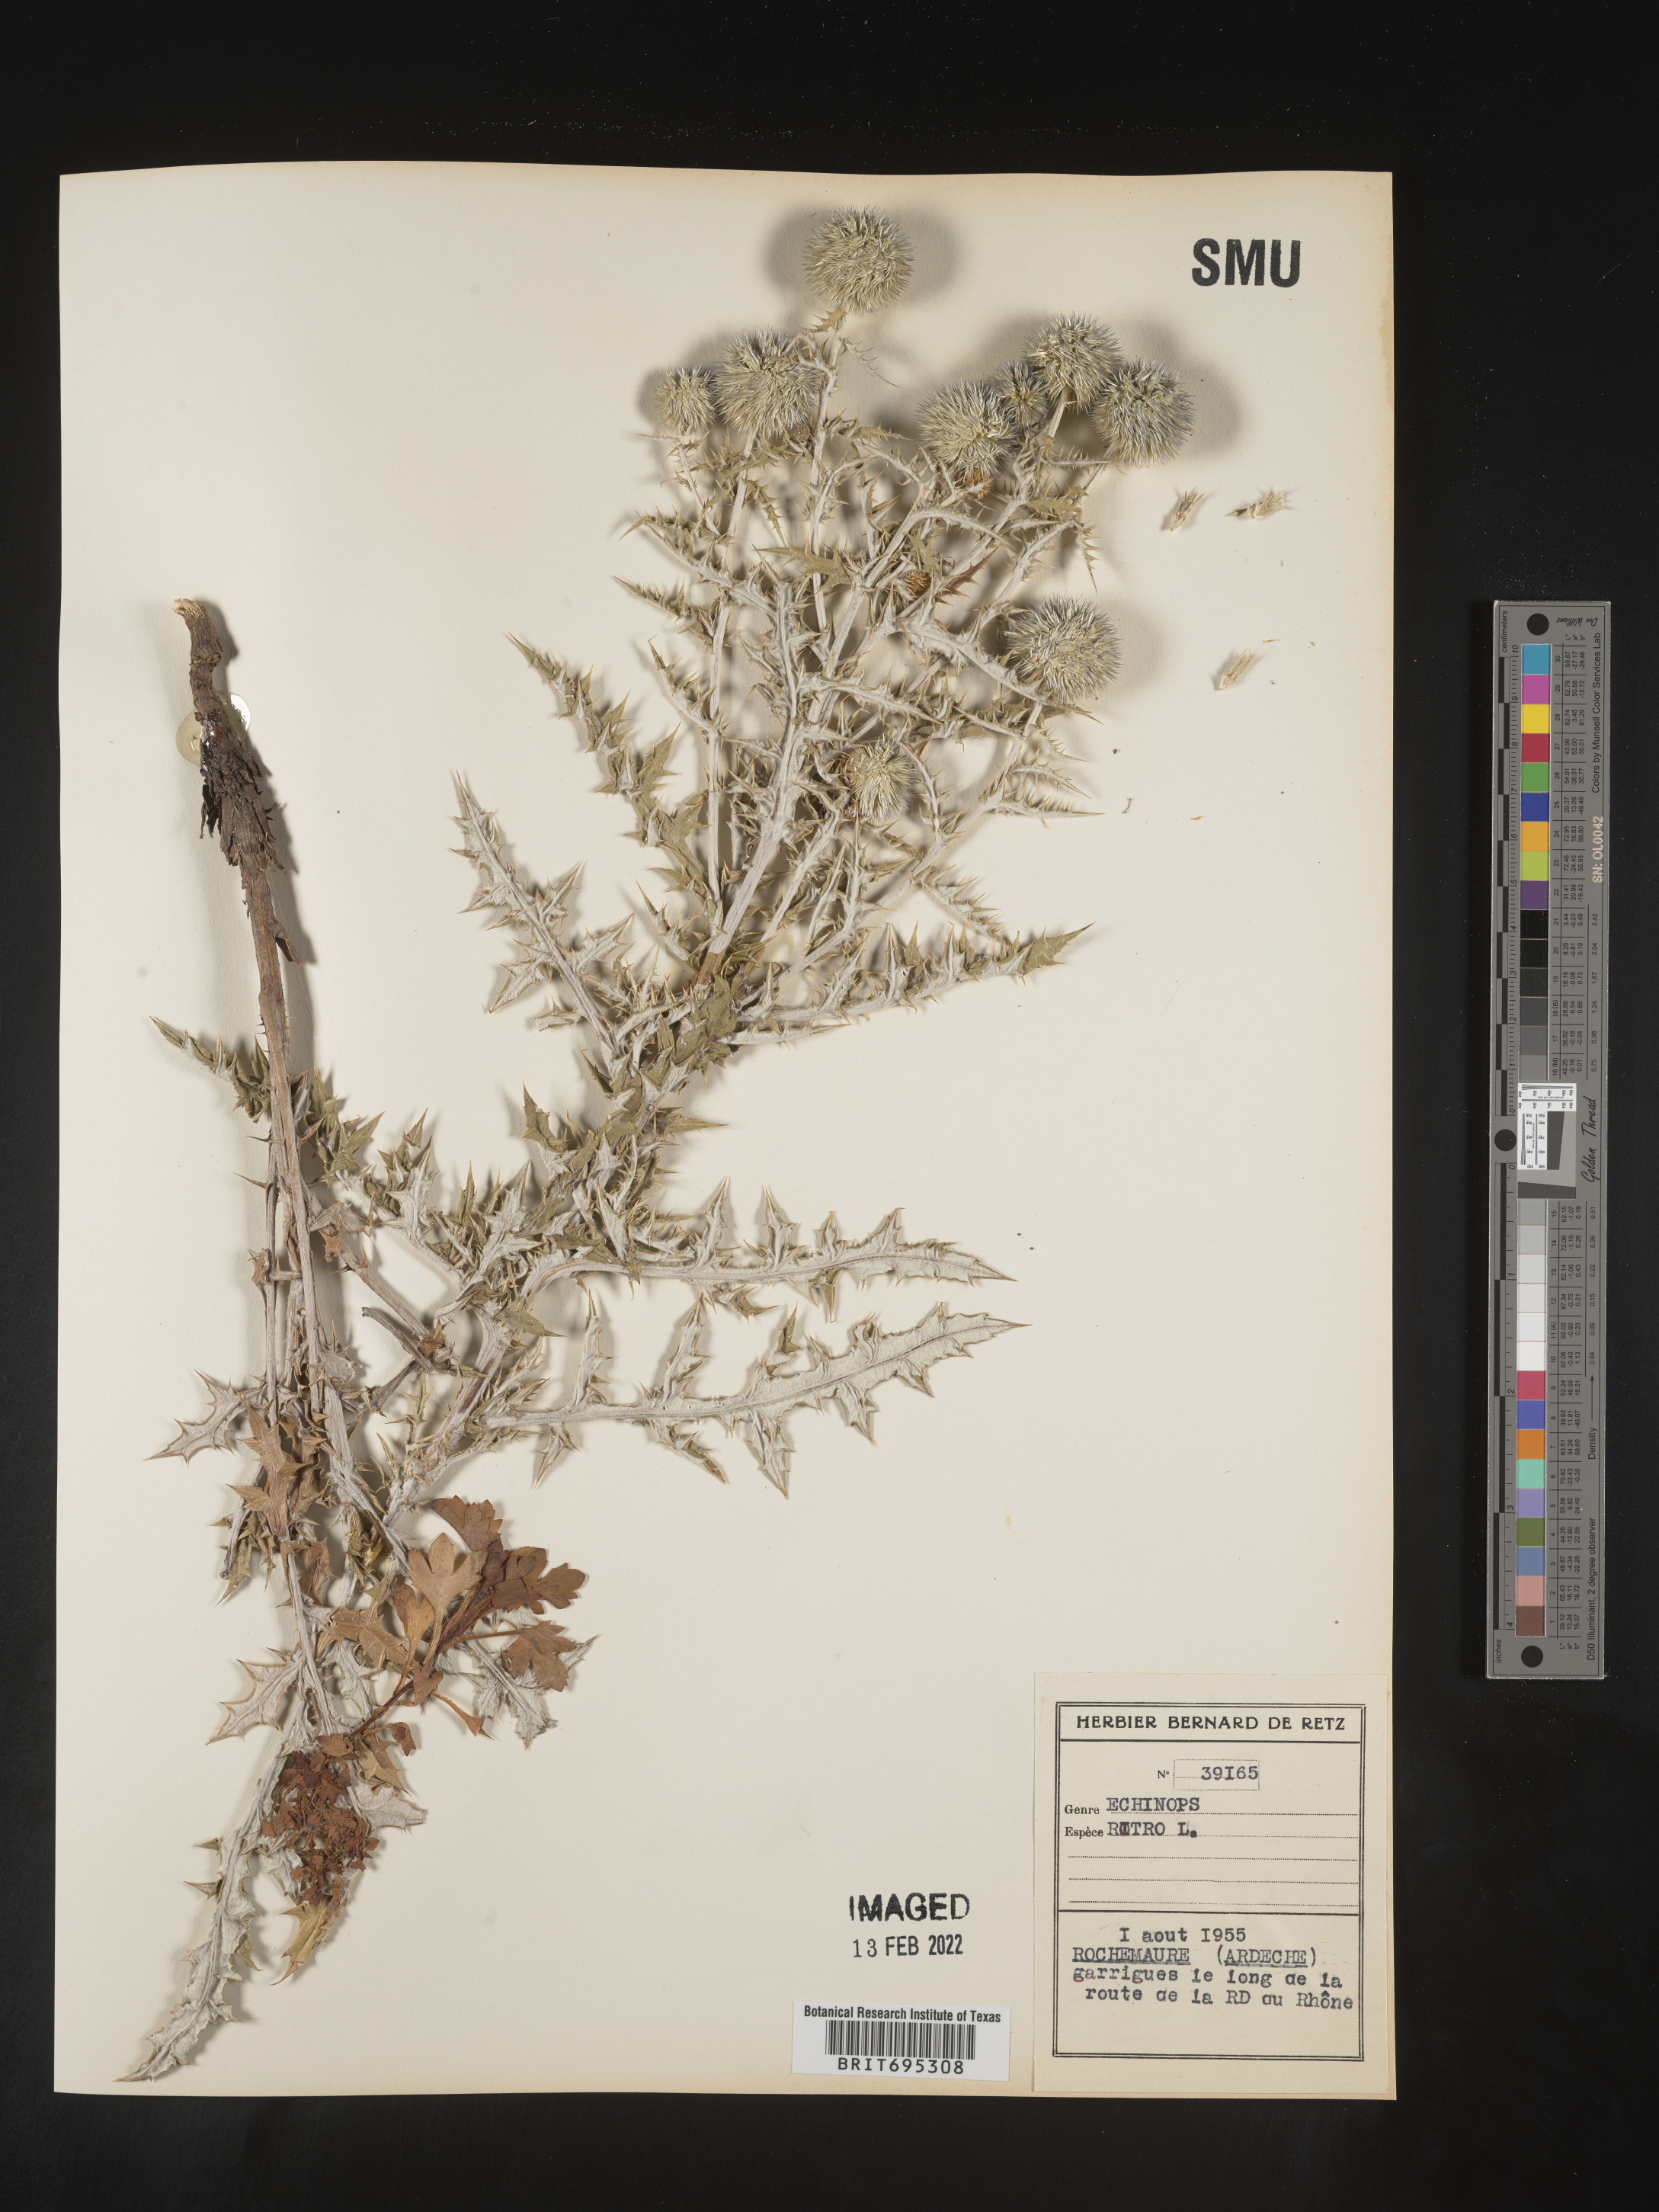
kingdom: Plantae
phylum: Tracheophyta
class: Magnoliopsida
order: Asterales
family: Asteraceae
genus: Echinops
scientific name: Echinops
